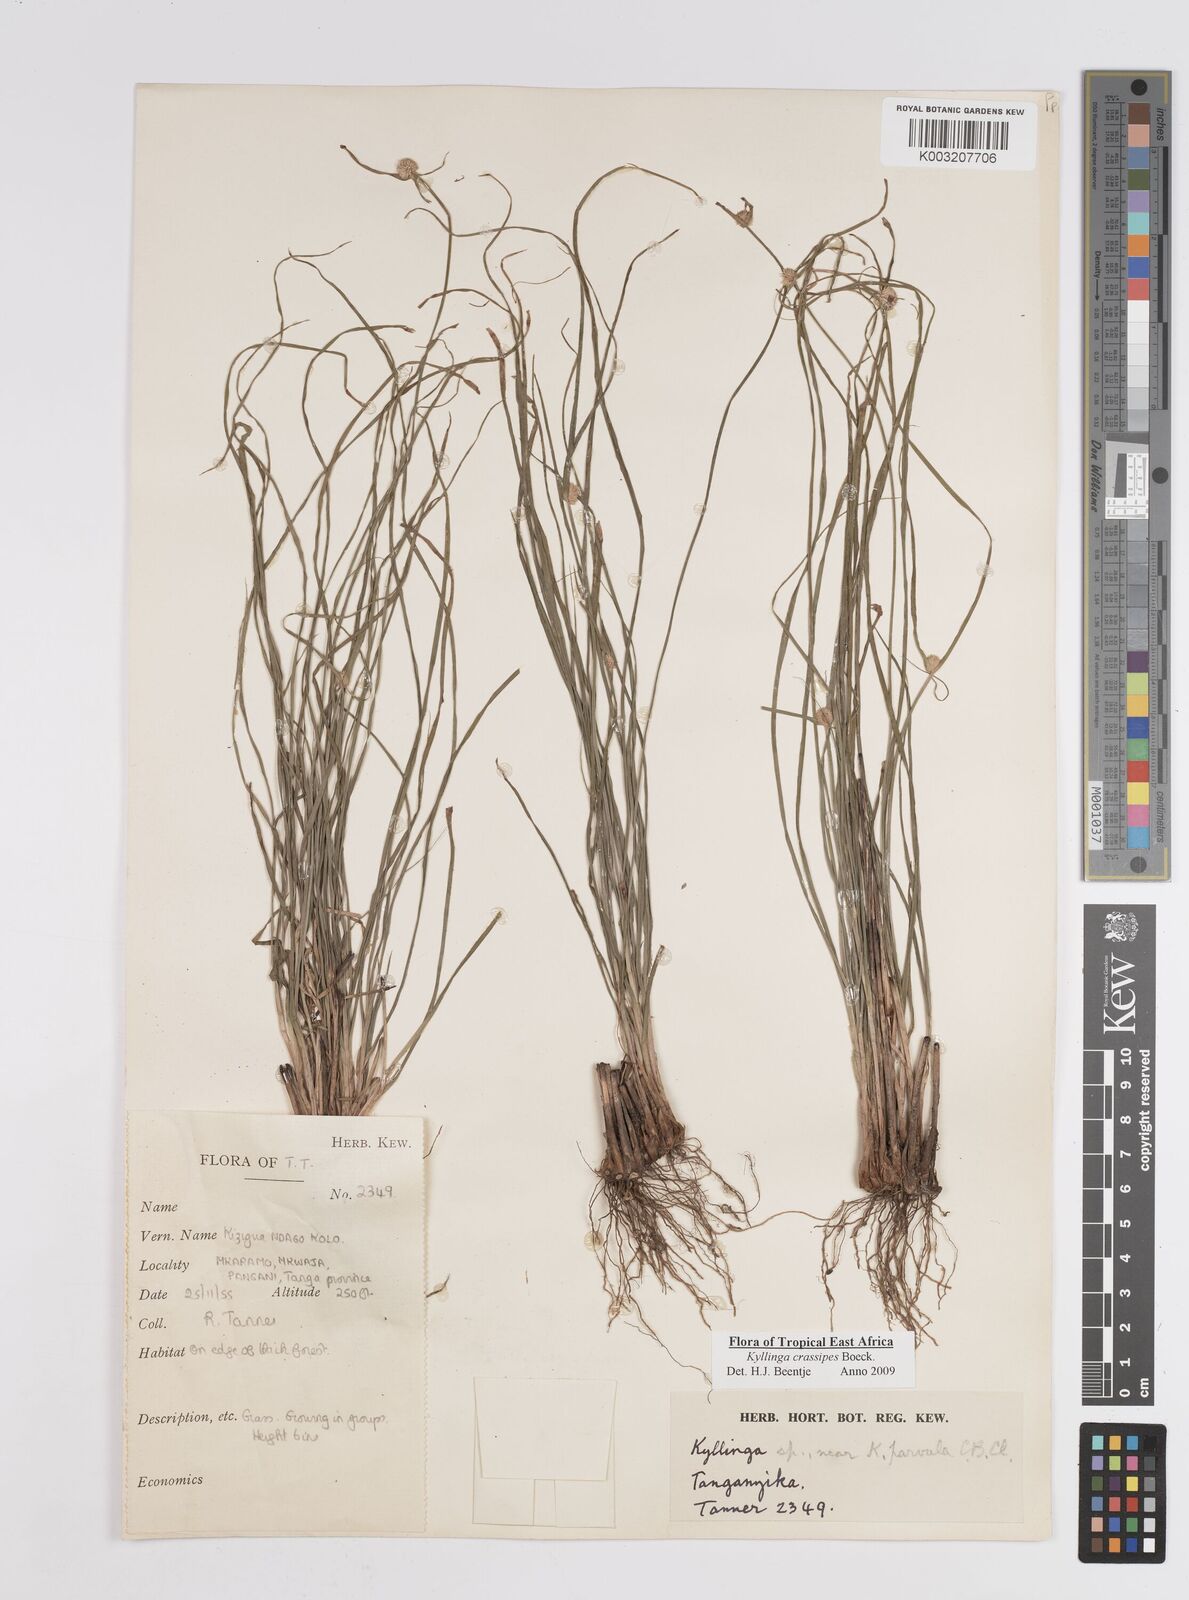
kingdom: Plantae
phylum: Tracheophyta
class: Liliopsida
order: Poales
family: Cyperaceae
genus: Cyperus
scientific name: Cyperus crassipes
